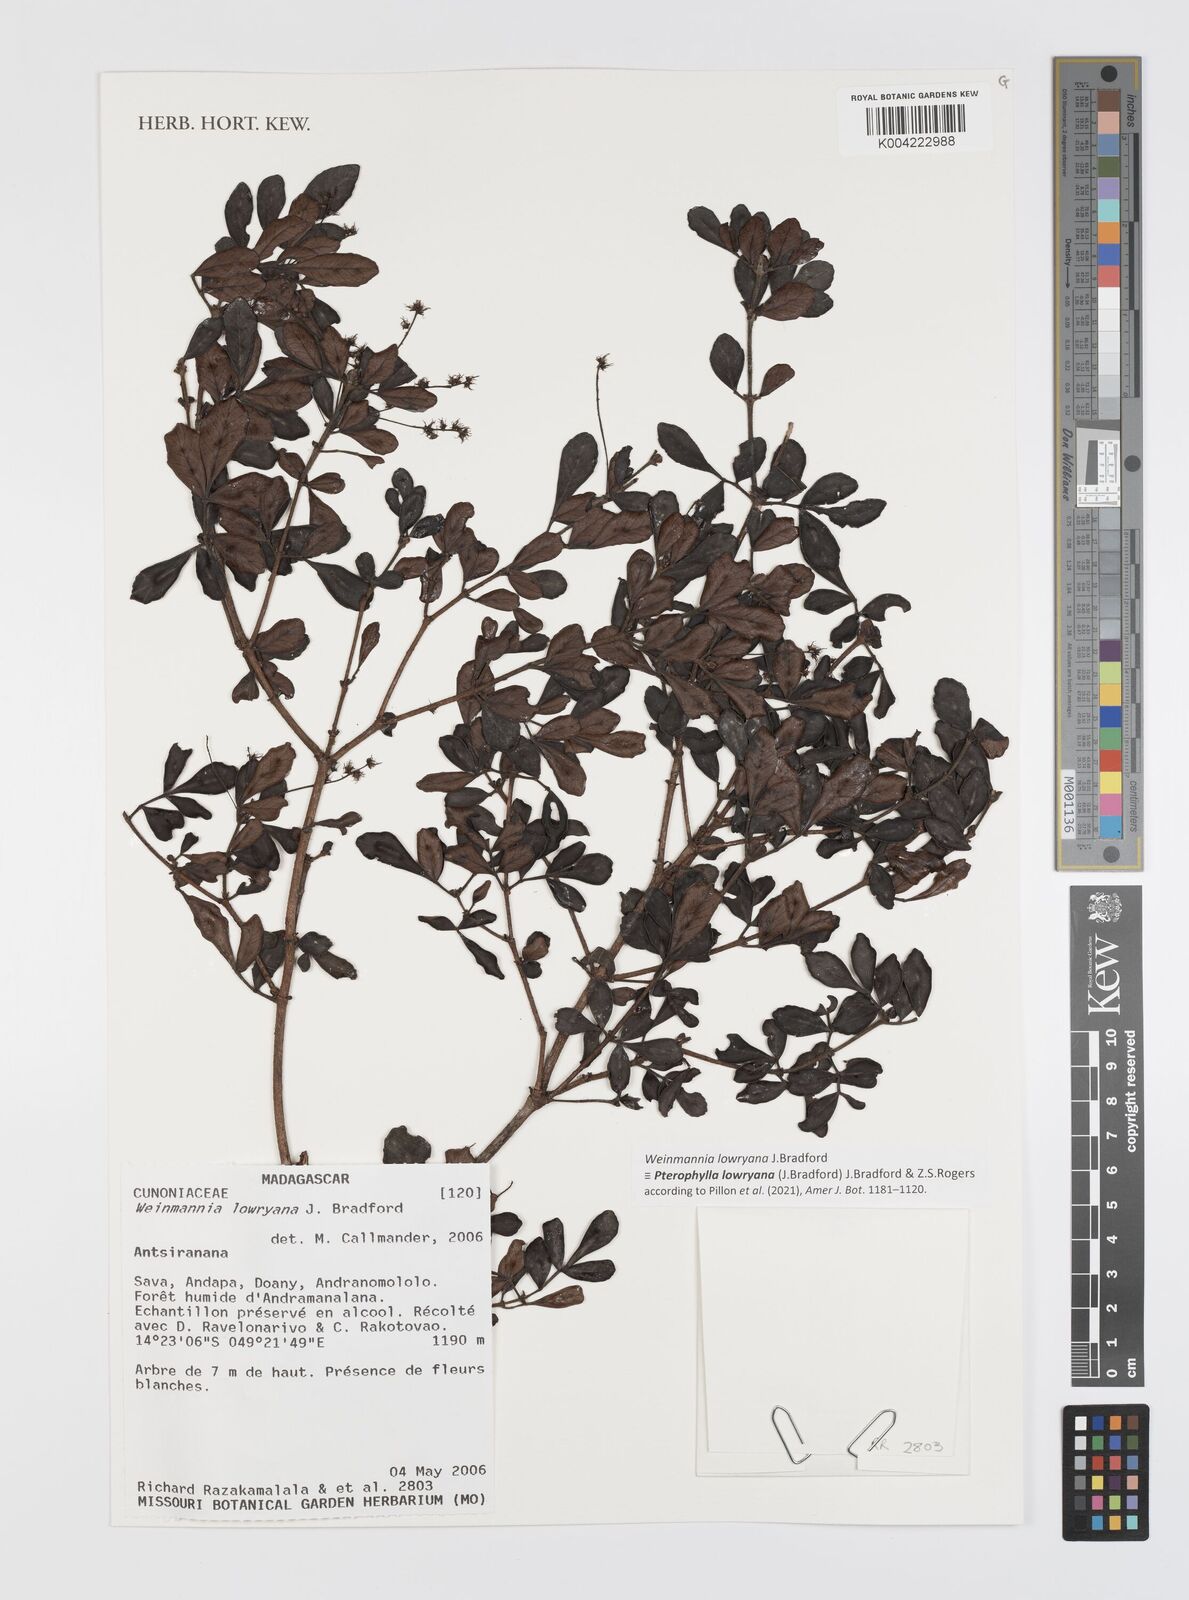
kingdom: Plantae
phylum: Tracheophyta
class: Magnoliopsida
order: Oxalidales
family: Cunoniaceae
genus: Pterophylla
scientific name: Pterophylla lowryana
